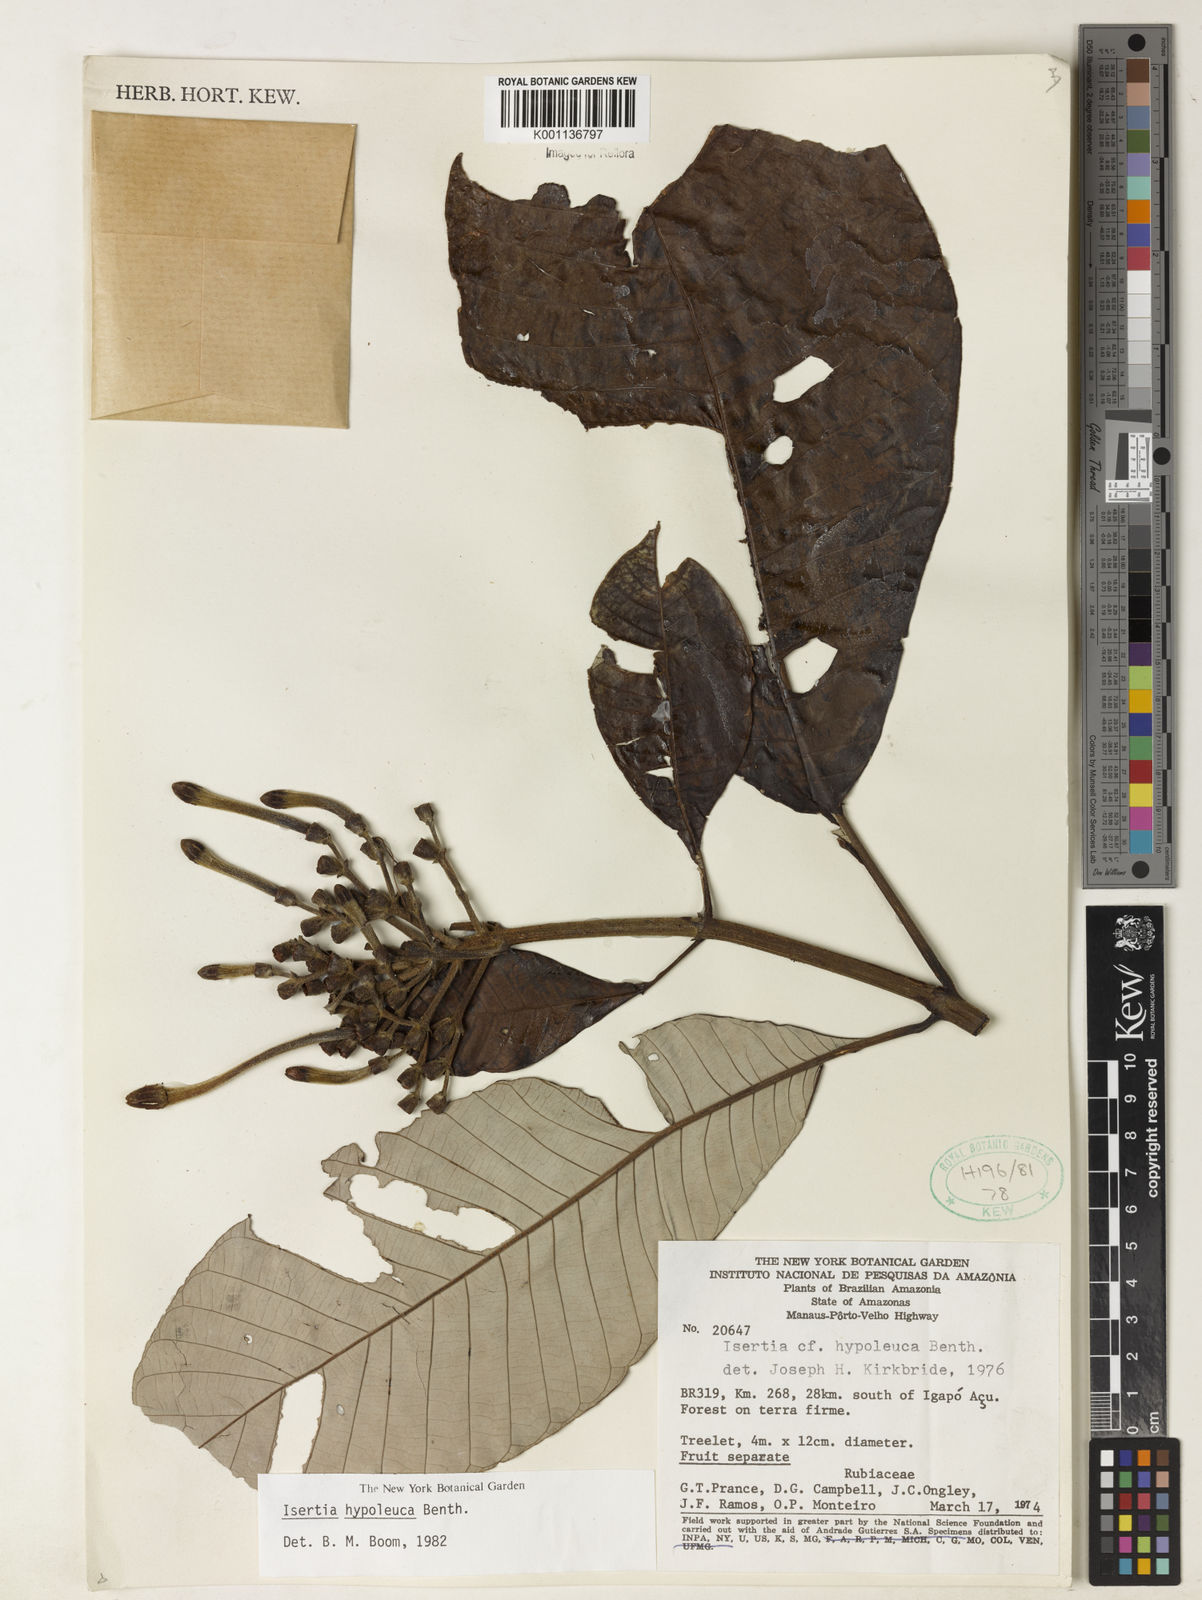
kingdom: Plantae
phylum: Tracheophyta
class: Magnoliopsida
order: Gentianales
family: Rubiaceae
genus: Isertia
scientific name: Isertia hypoleuca
